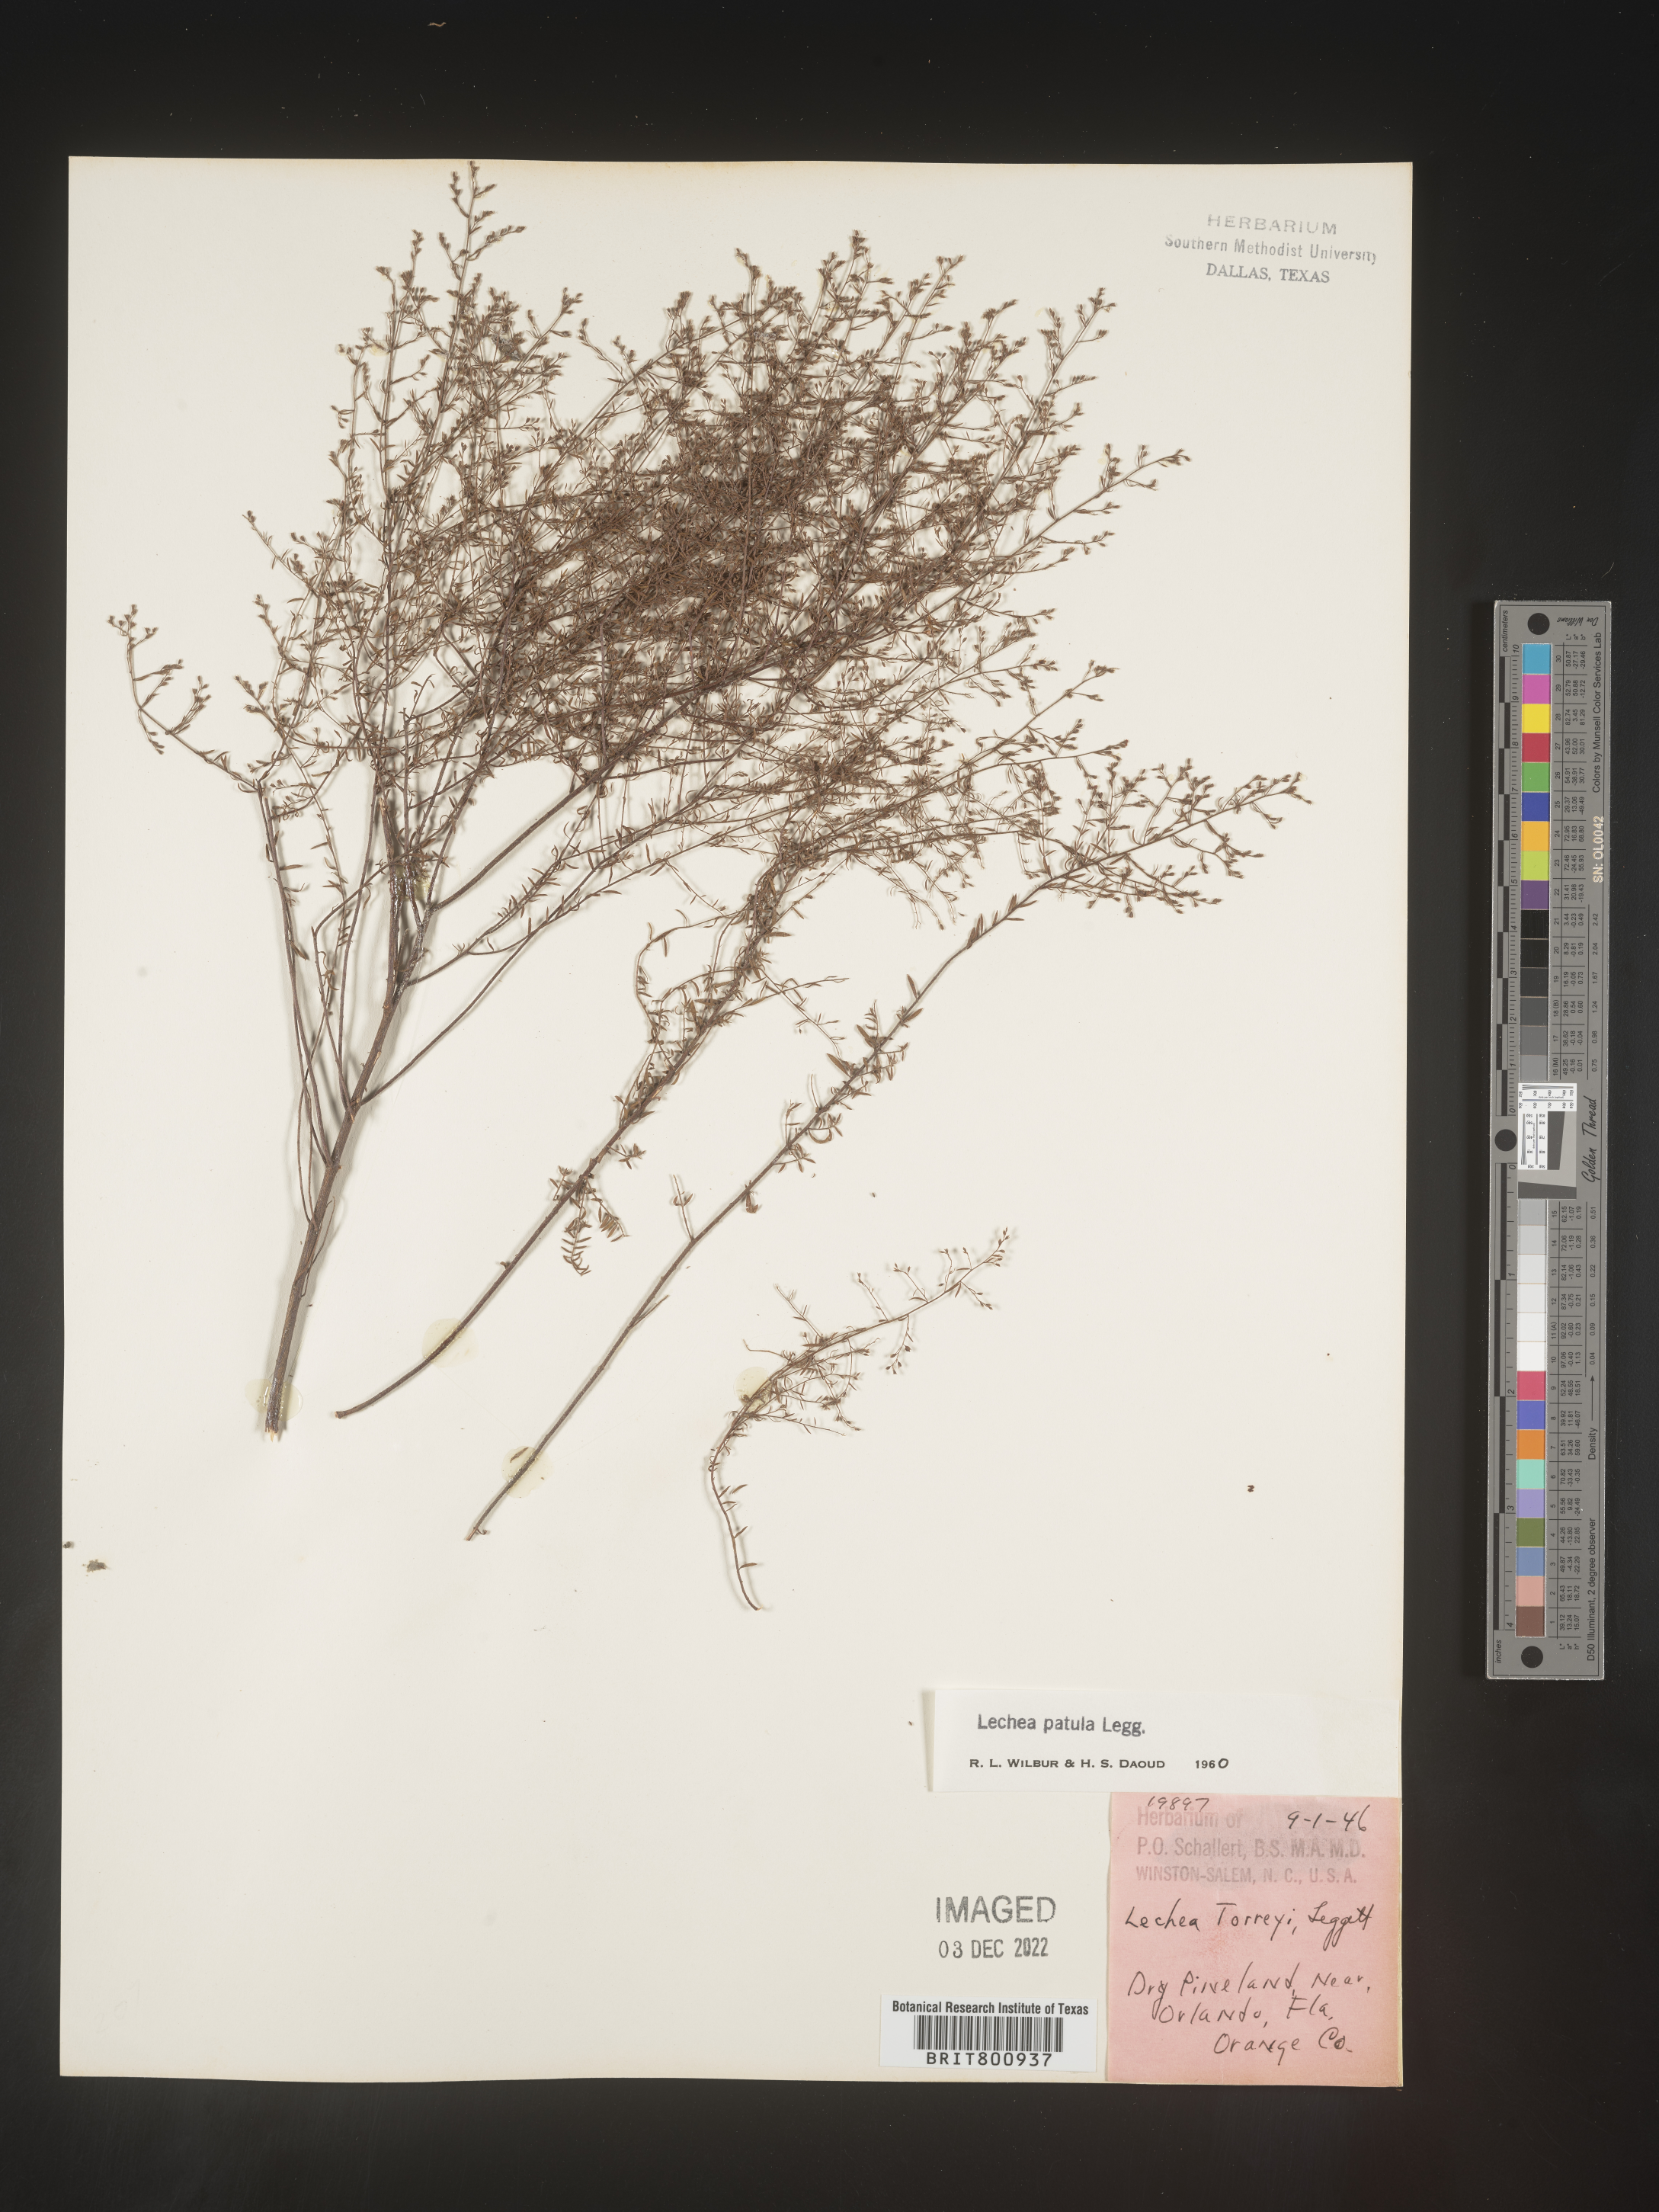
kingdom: Plantae
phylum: Tracheophyta
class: Magnoliopsida
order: Malvales
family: Cistaceae
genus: Lechea
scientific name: Lechea sessiliflora
